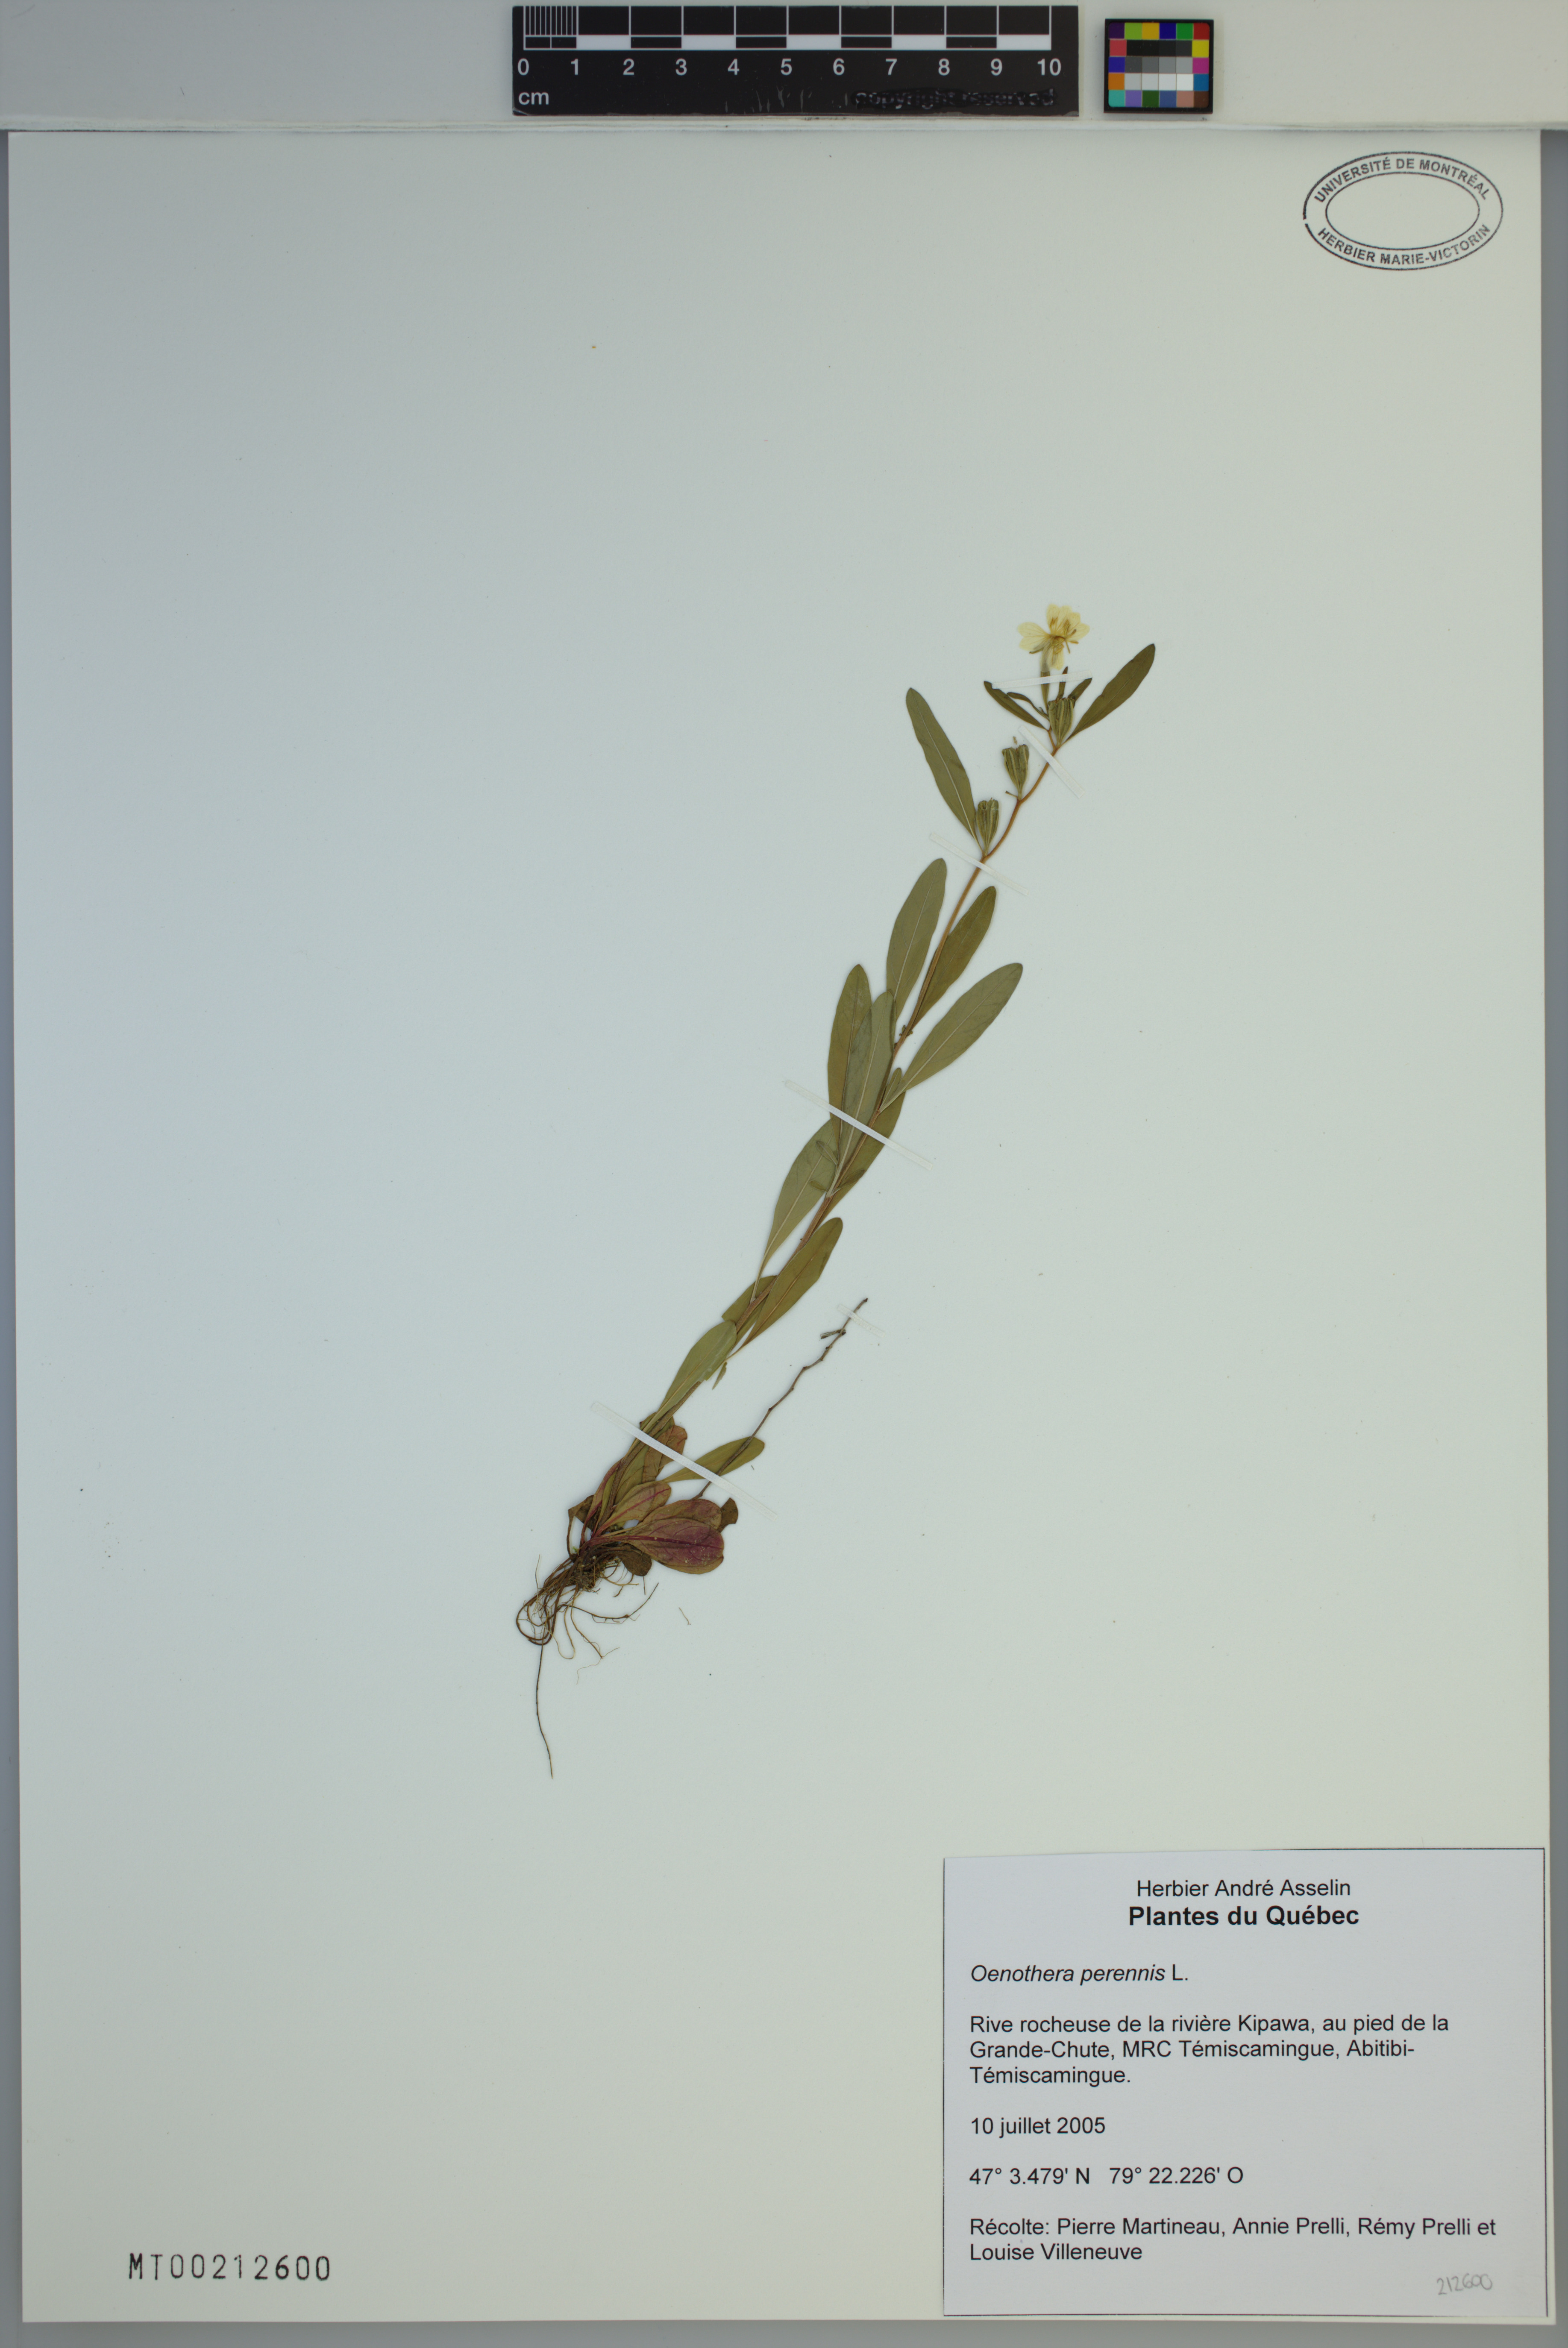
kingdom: Plantae
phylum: Tracheophyta
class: Magnoliopsida
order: Myrtales
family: Onagraceae
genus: Oenothera
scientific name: Oenothera perennis
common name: Small sundrops
